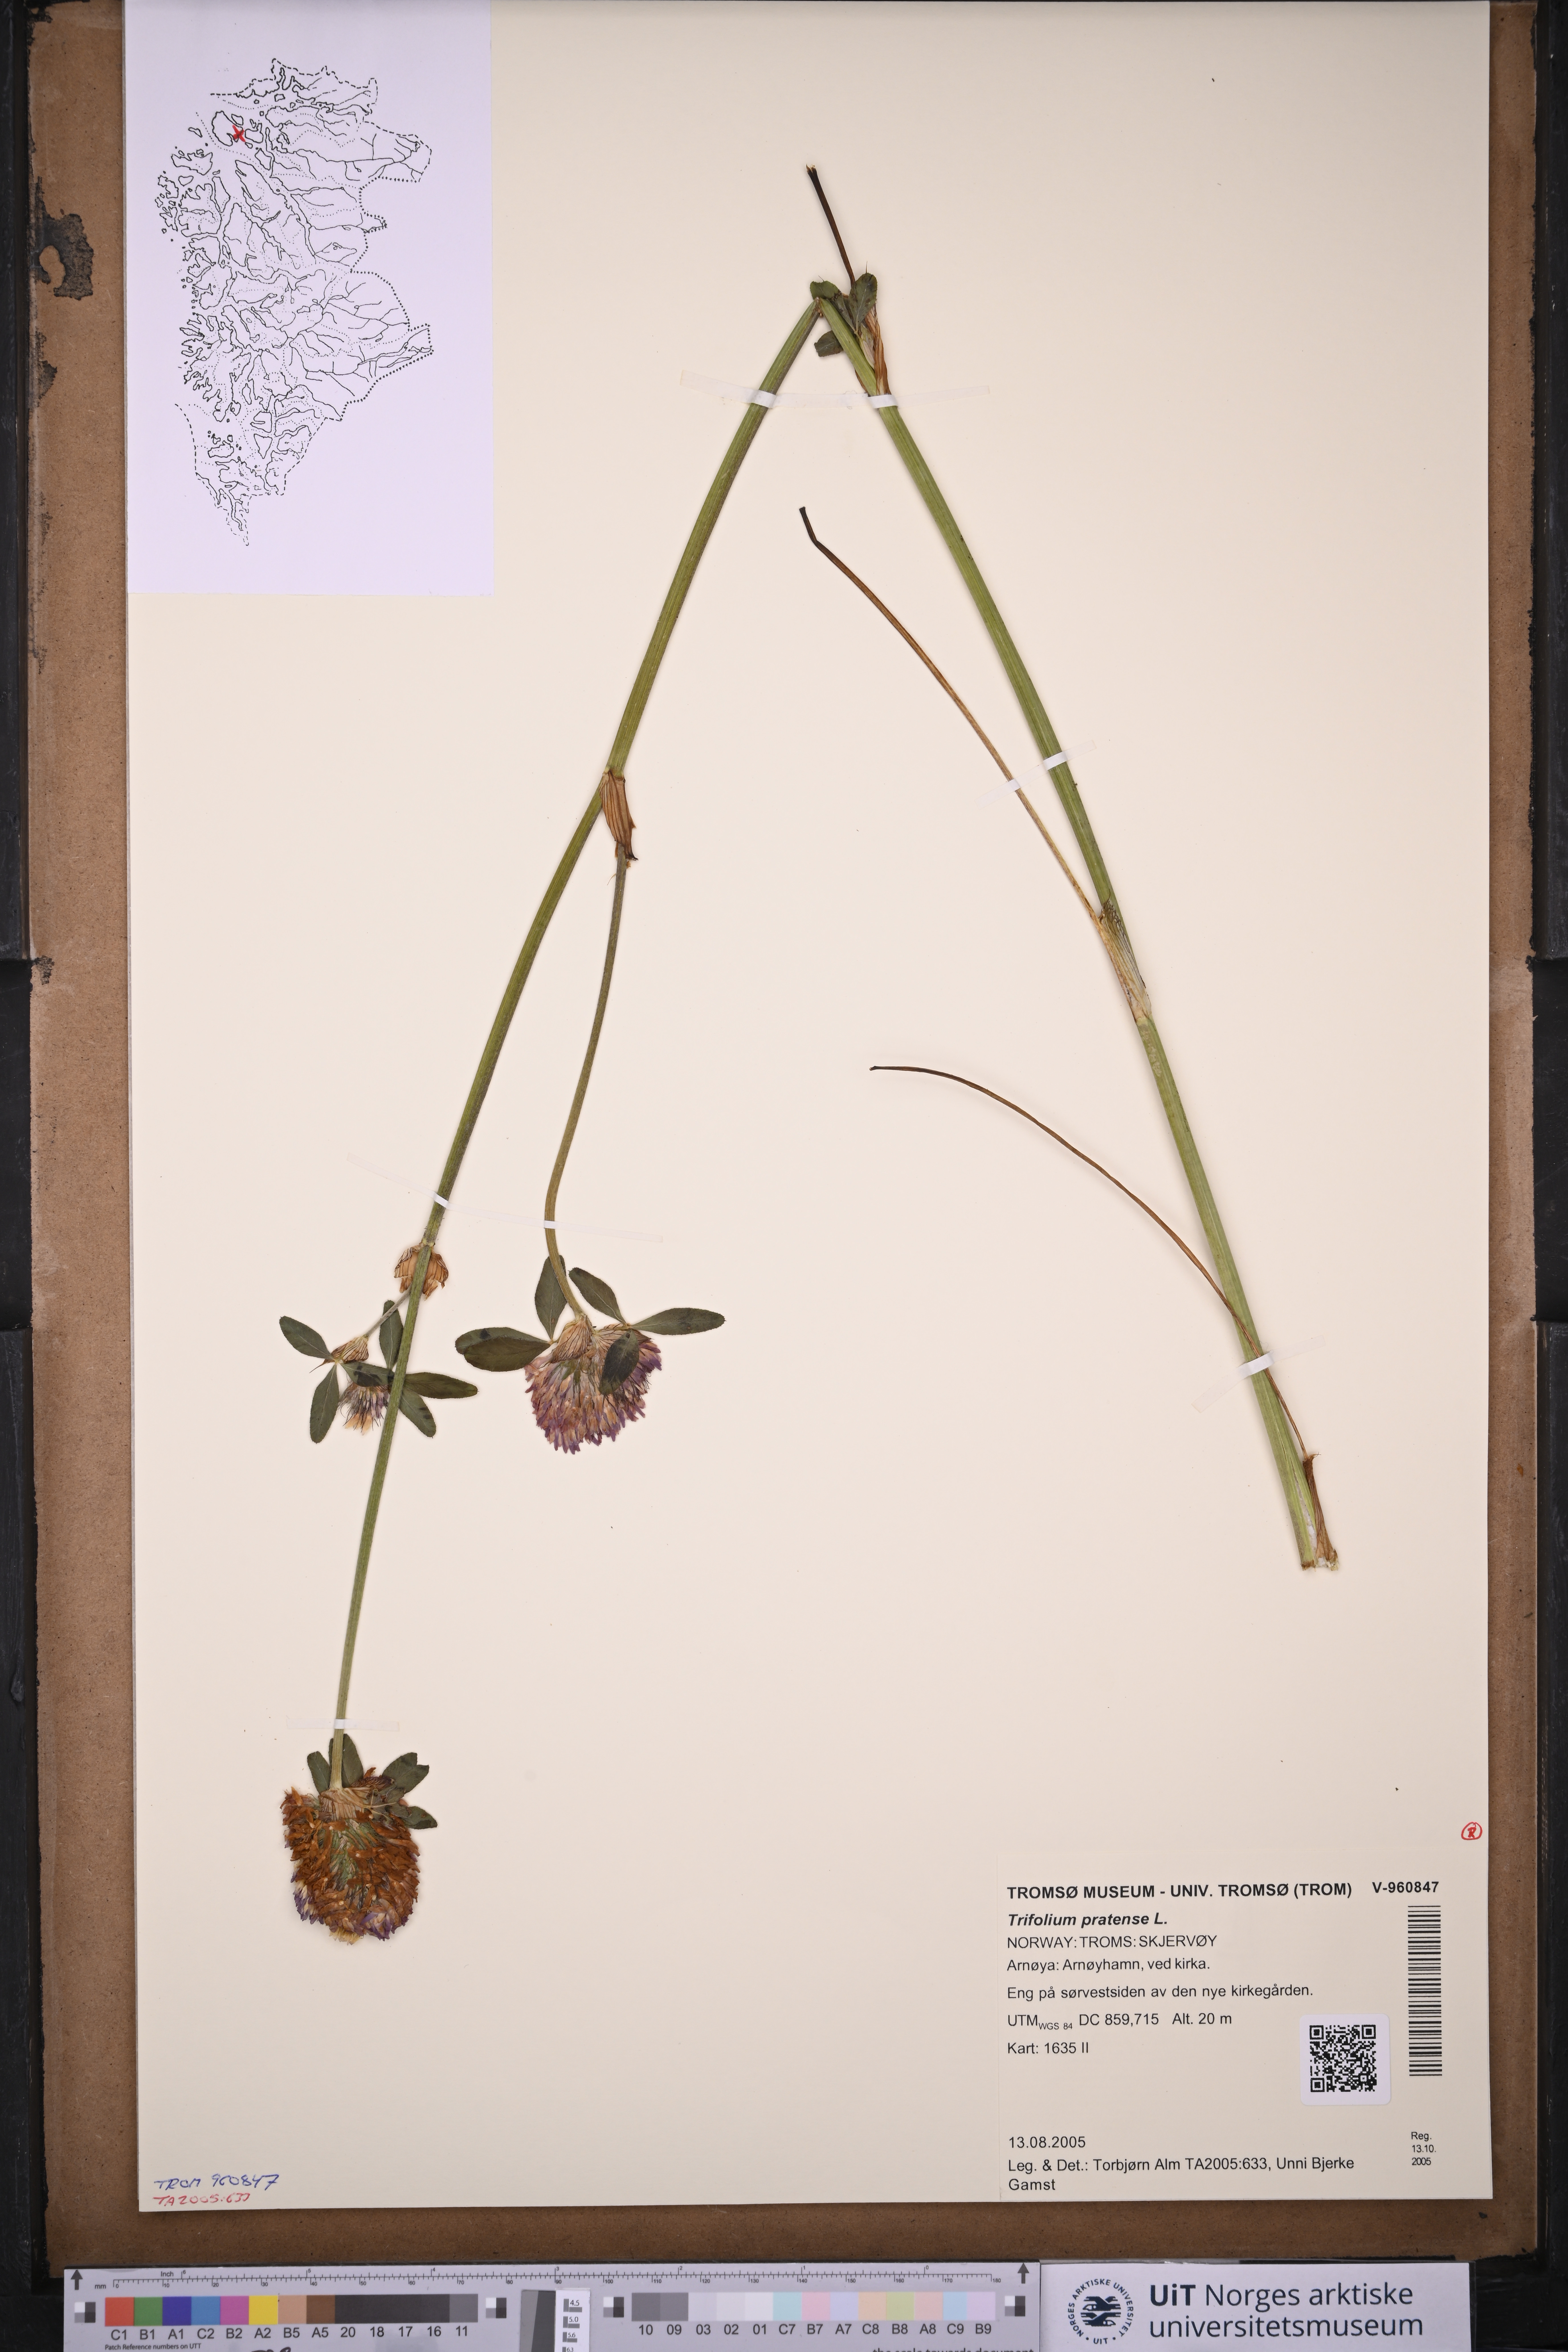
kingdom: Plantae
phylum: Tracheophyta
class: Magnoliopsida
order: Fabales
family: Fabaceae
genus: Trifolium
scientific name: Trifolium pratense
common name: Red clover
